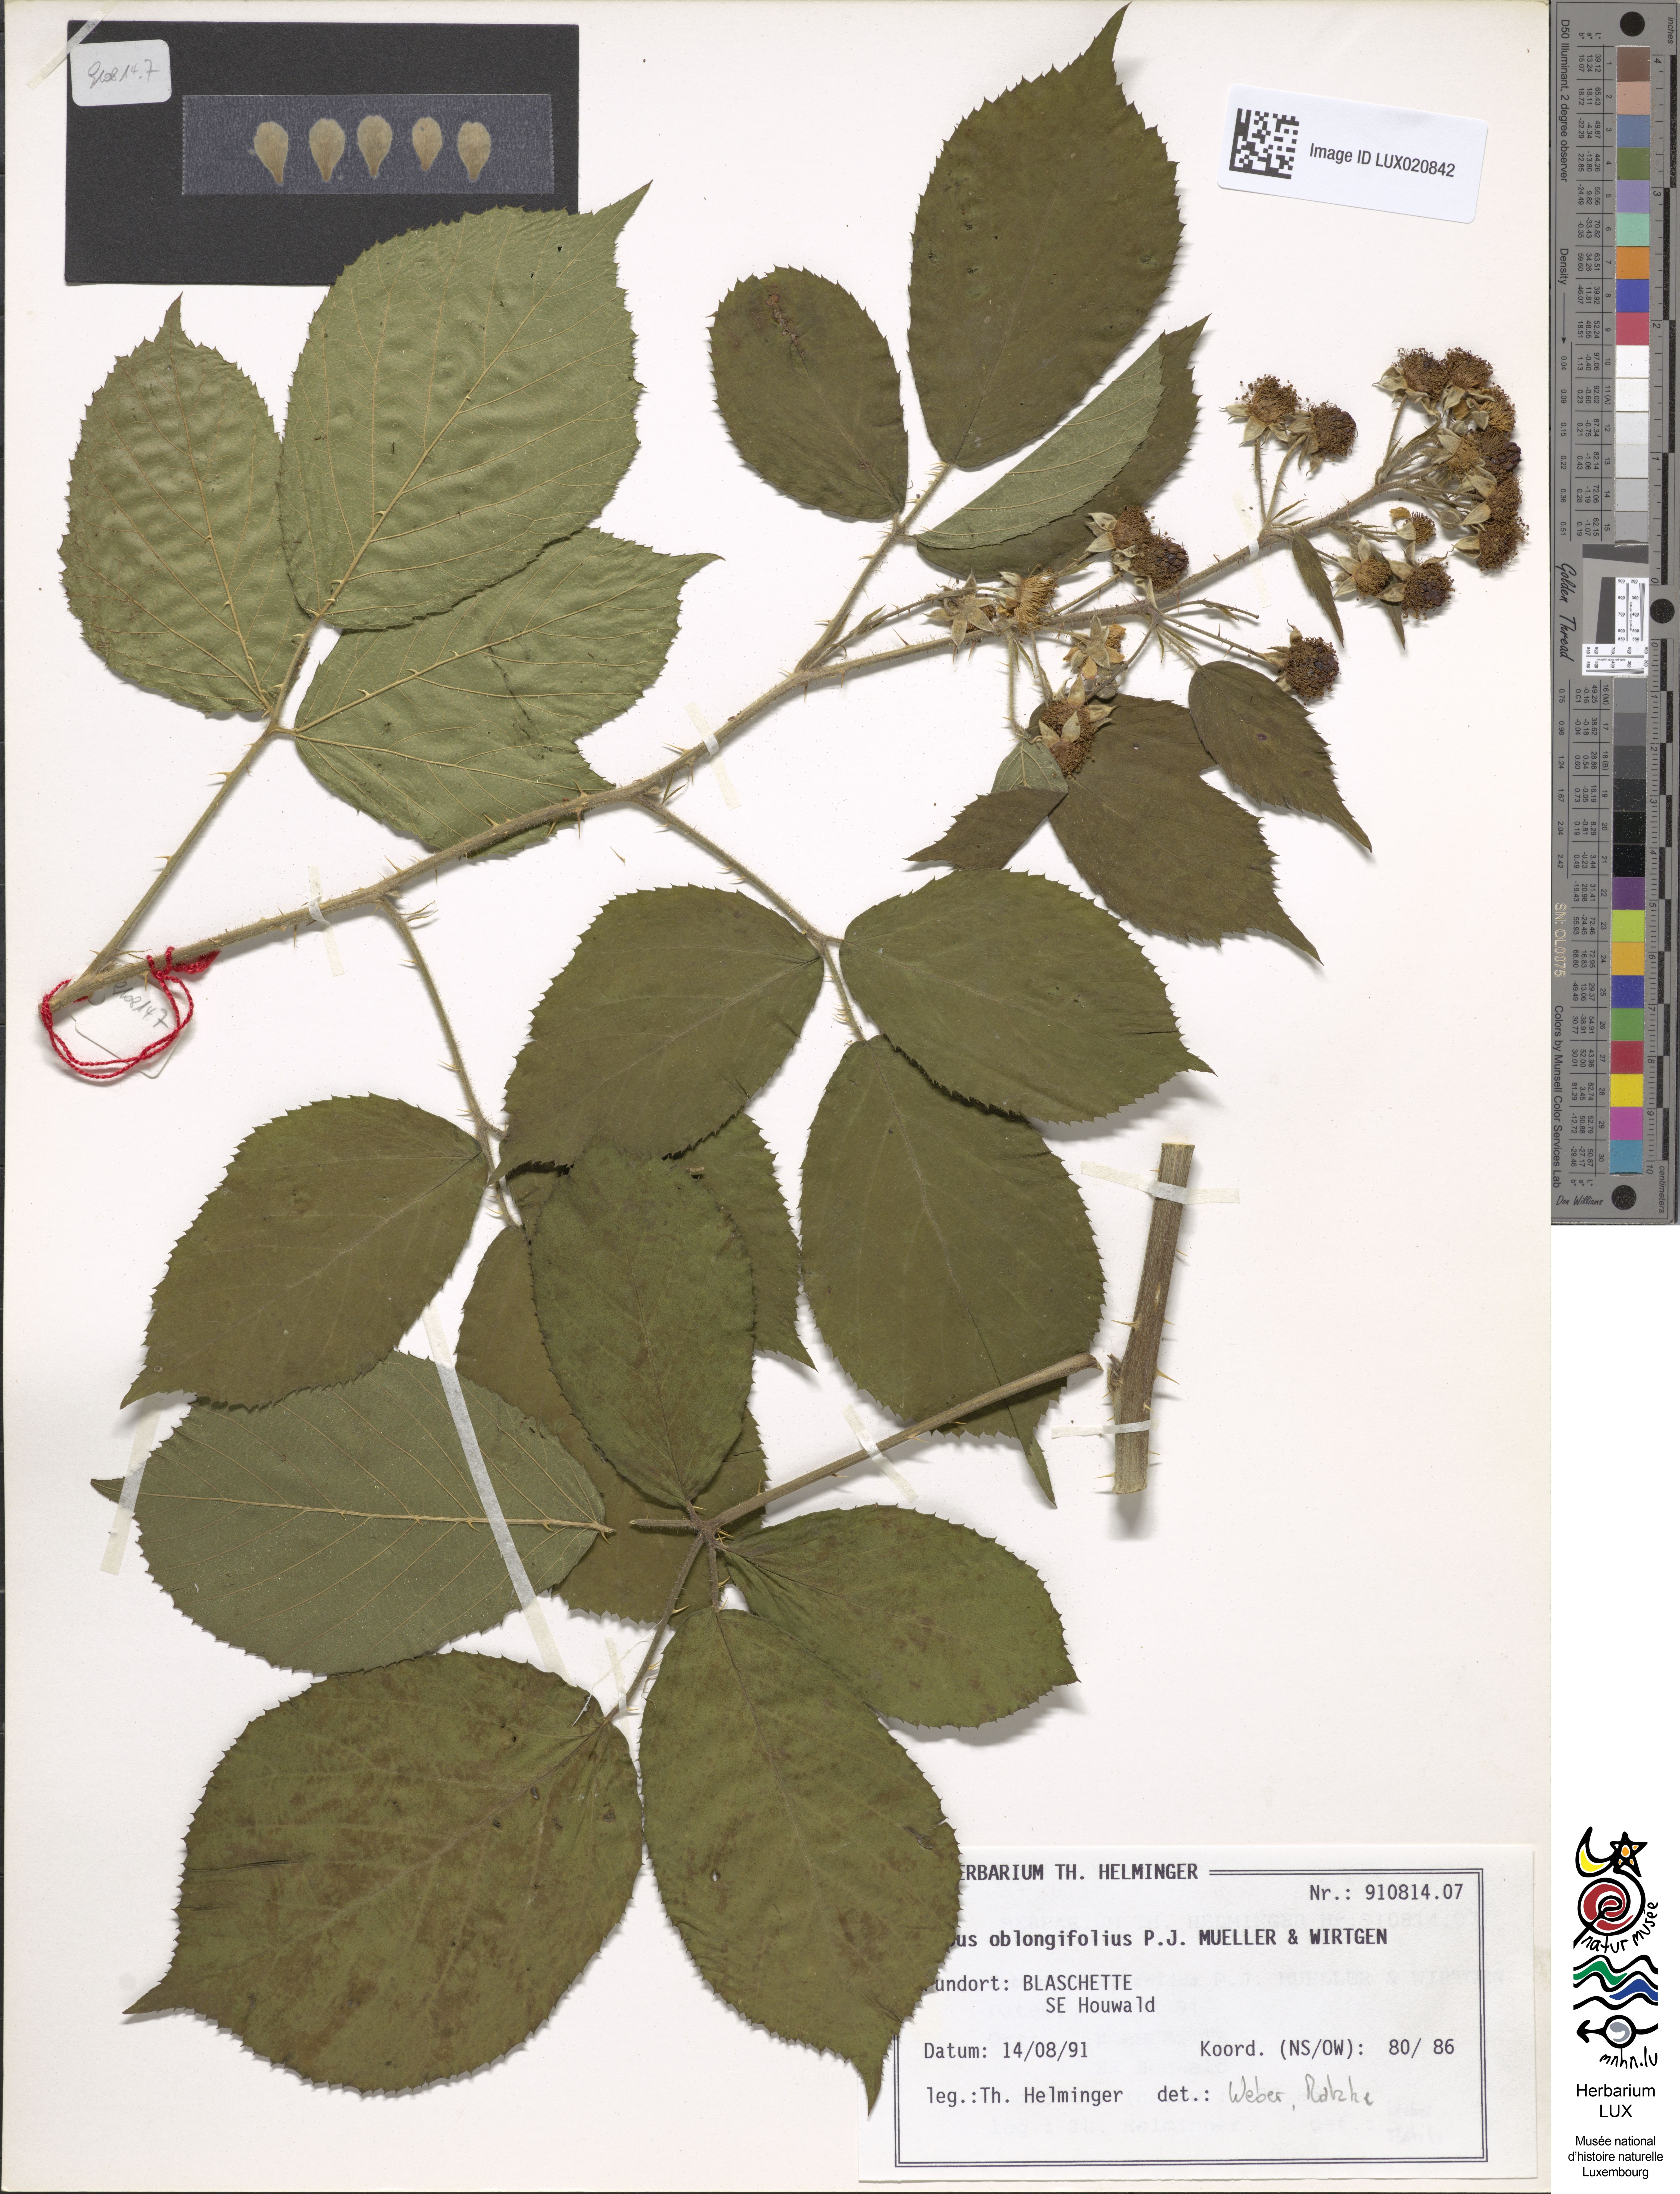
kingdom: Plantae
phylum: Tracheophyta
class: Magnoliopsida
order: Rosales
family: Rosaceae
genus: Rubus
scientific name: Rubus oblongifolius
